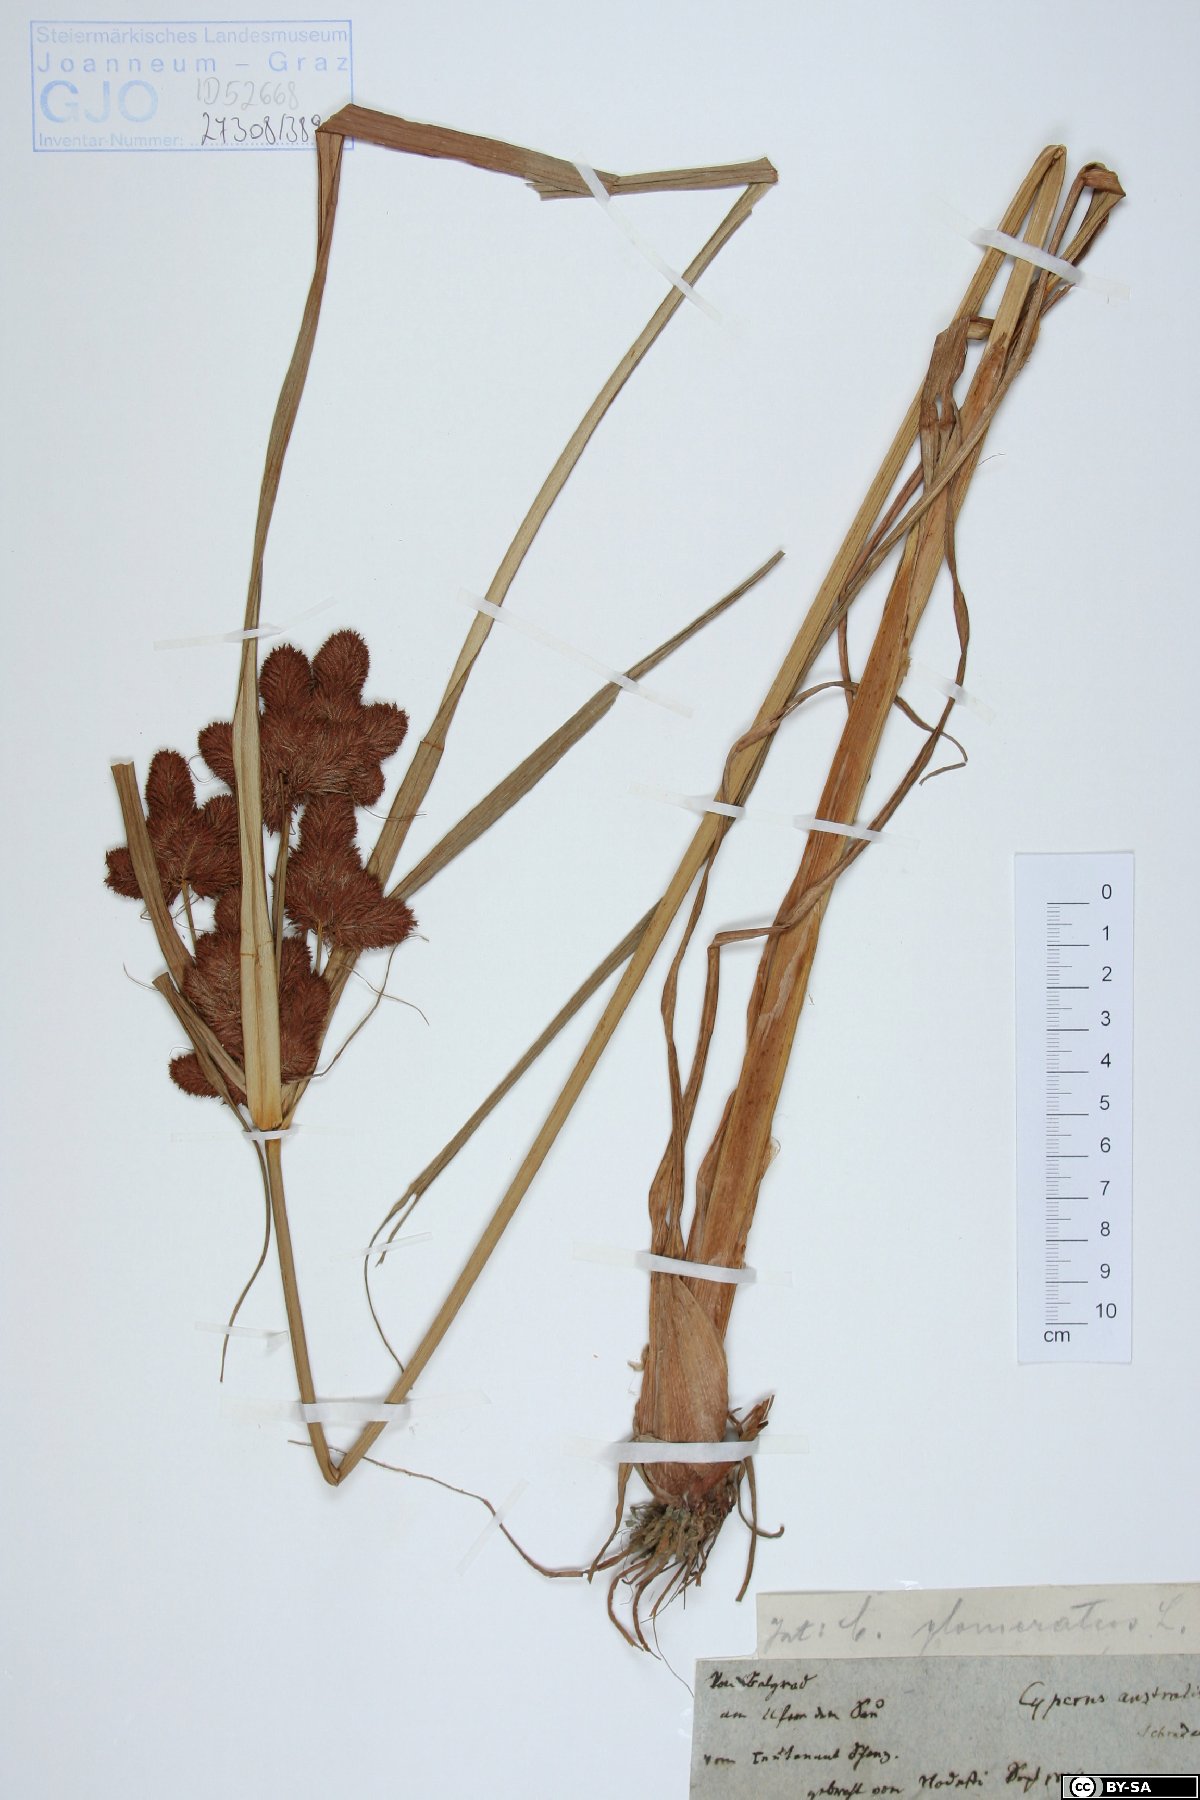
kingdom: Plantae
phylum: Tracheophyta
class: Liliopsida
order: Poales
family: Cyperaceae
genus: Cyperus
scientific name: Cyperus glomeratus
